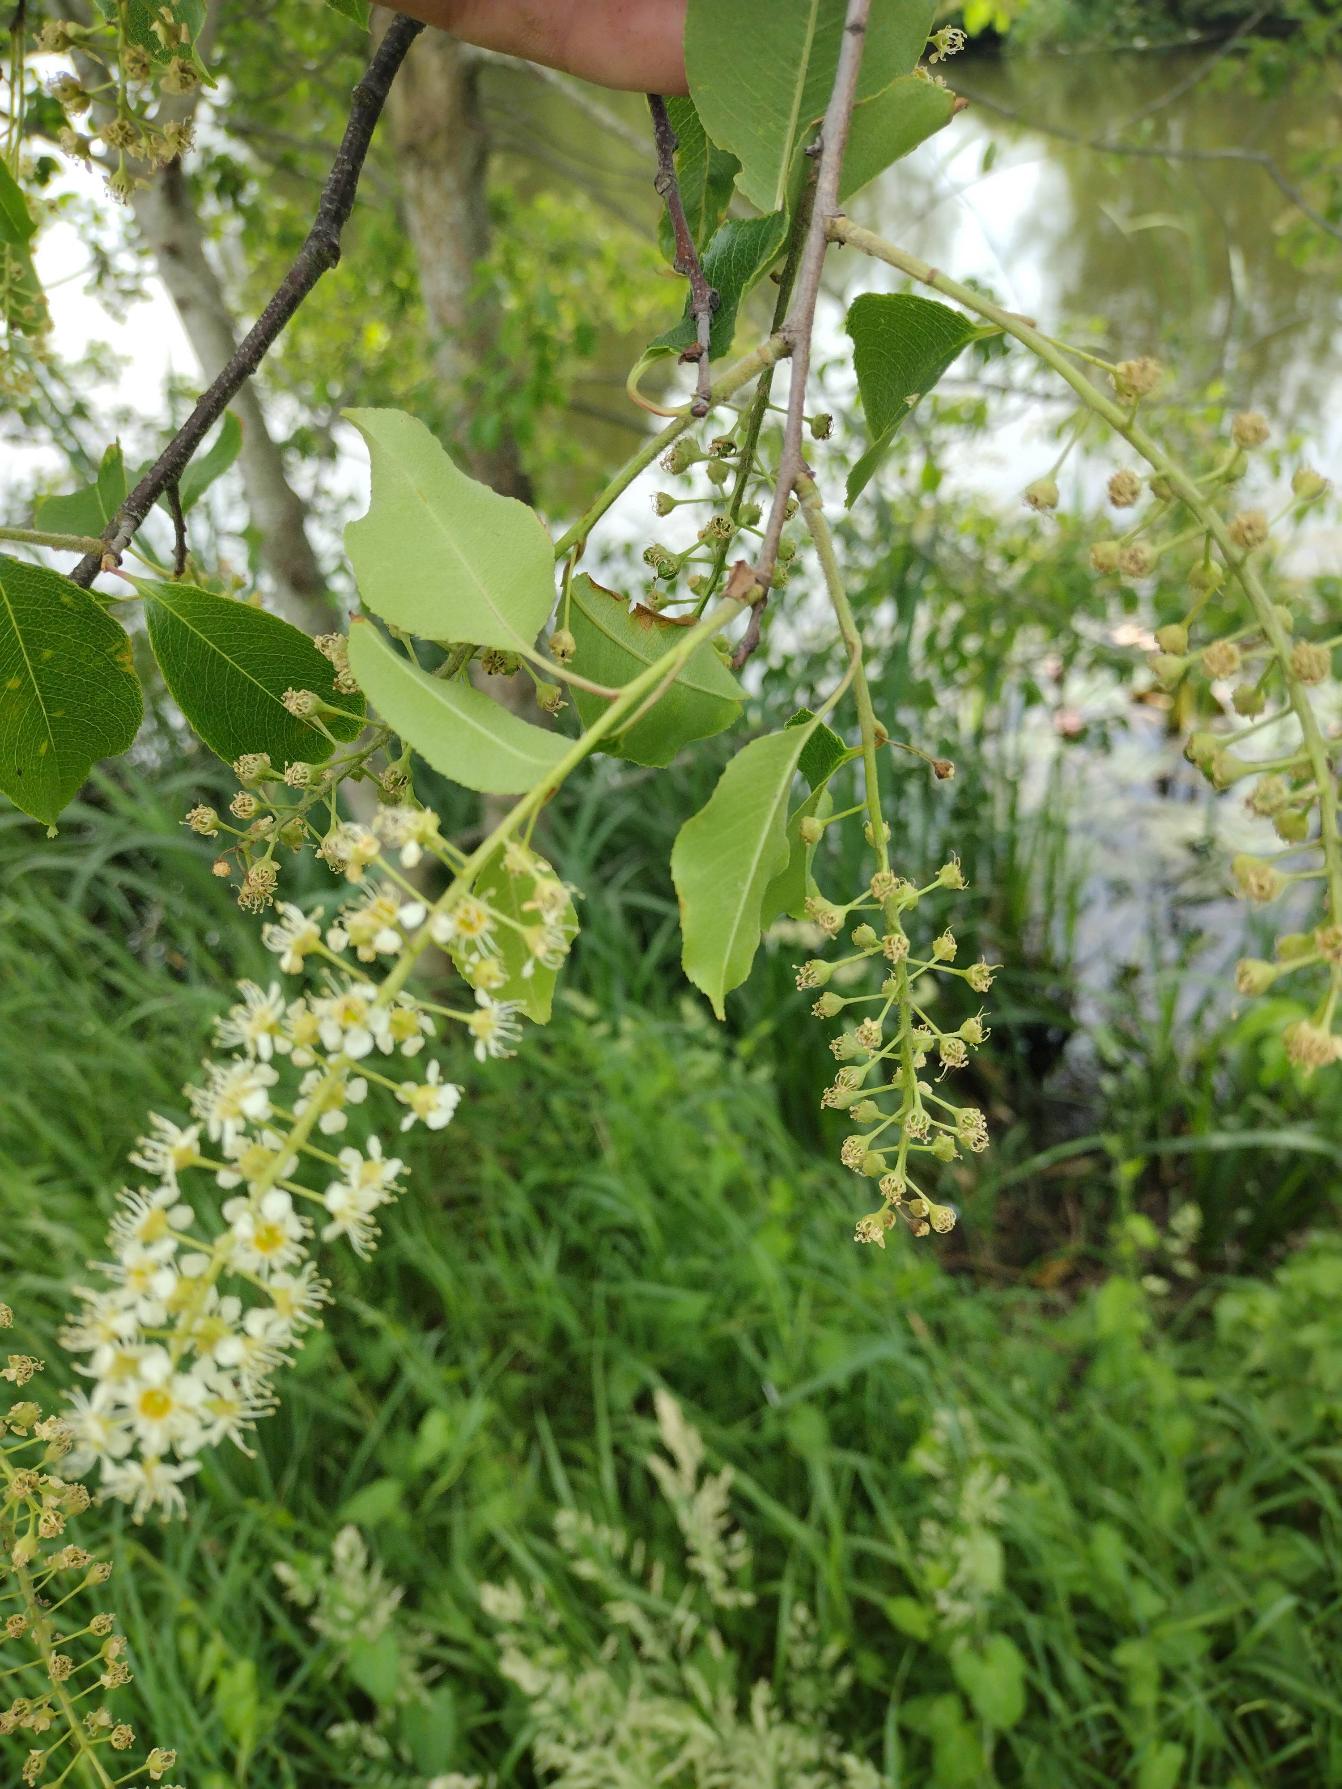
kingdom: Plantae
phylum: Tracheophyta
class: Magnoliopsida
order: Rosales
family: Rosaceae
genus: Prunus
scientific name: Prunus serotina
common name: Glansbladet hæg
